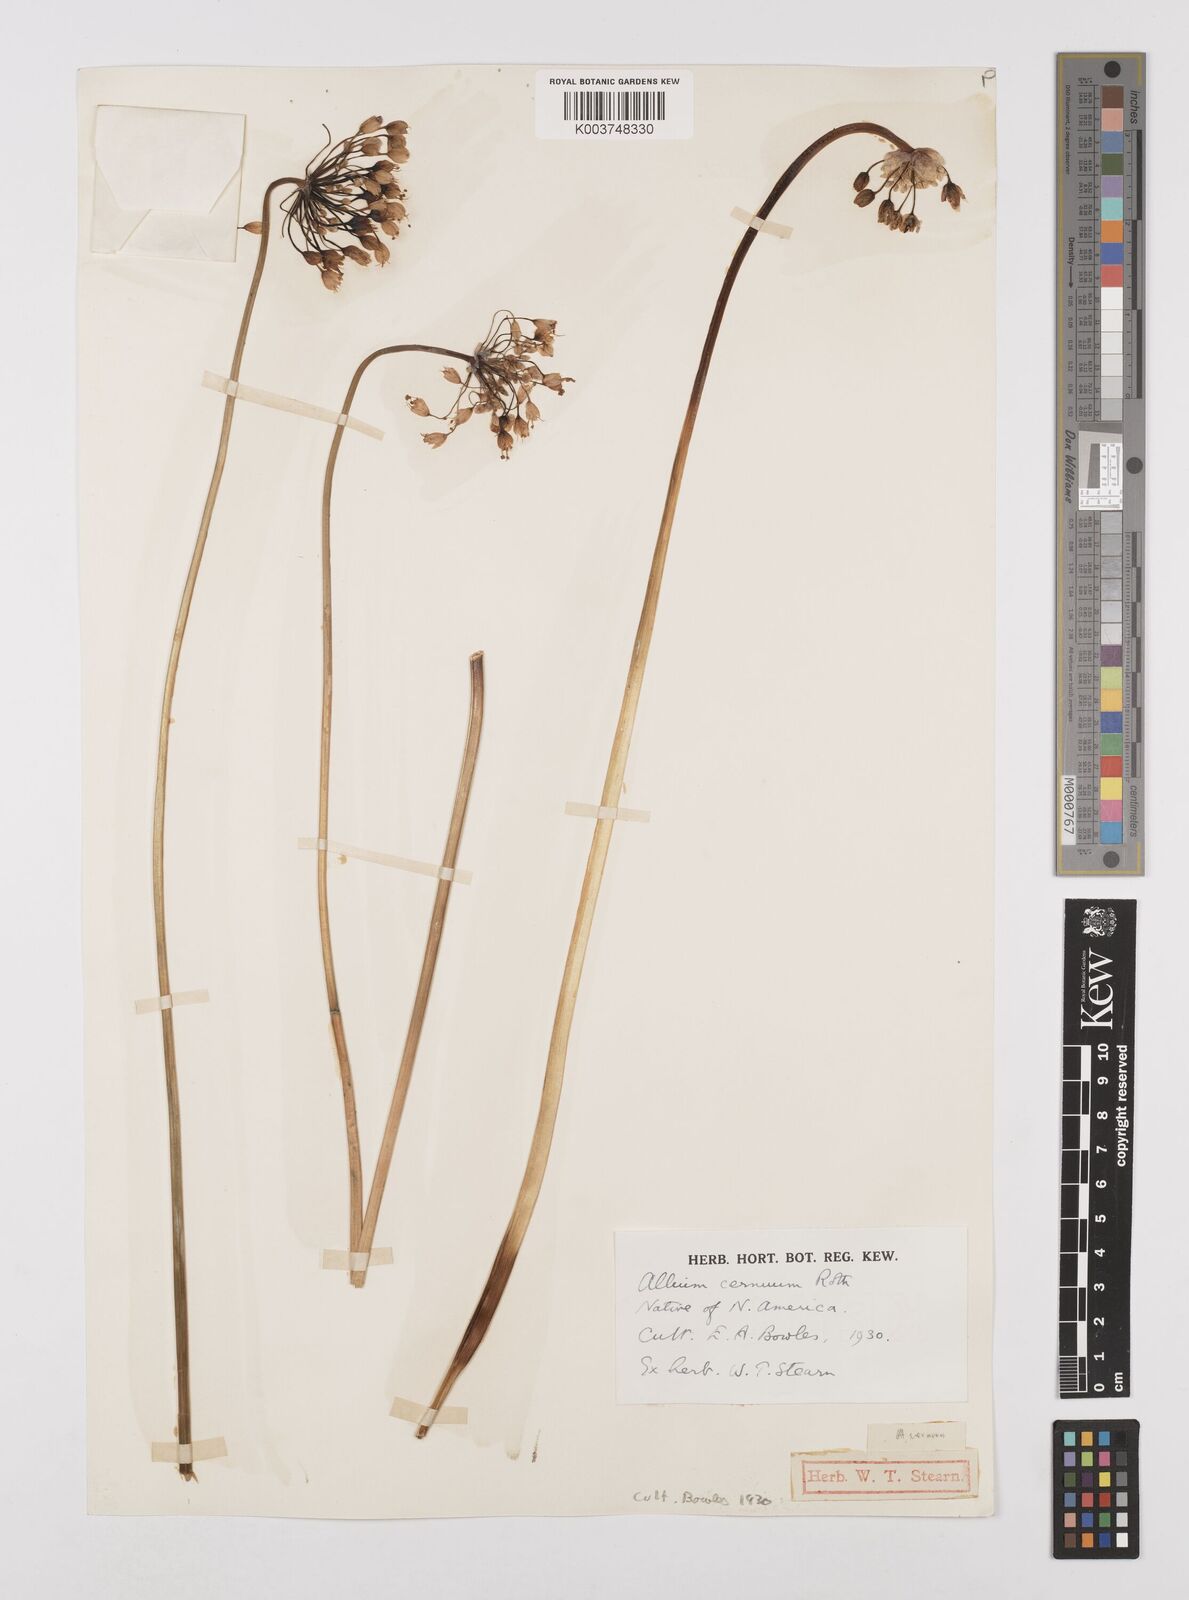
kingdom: Plantae
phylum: Tracheophyta
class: Liliopsida
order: Asparagales
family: Amaryllidaceae
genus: Allium
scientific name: Allium cernuum
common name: Nodding onion
